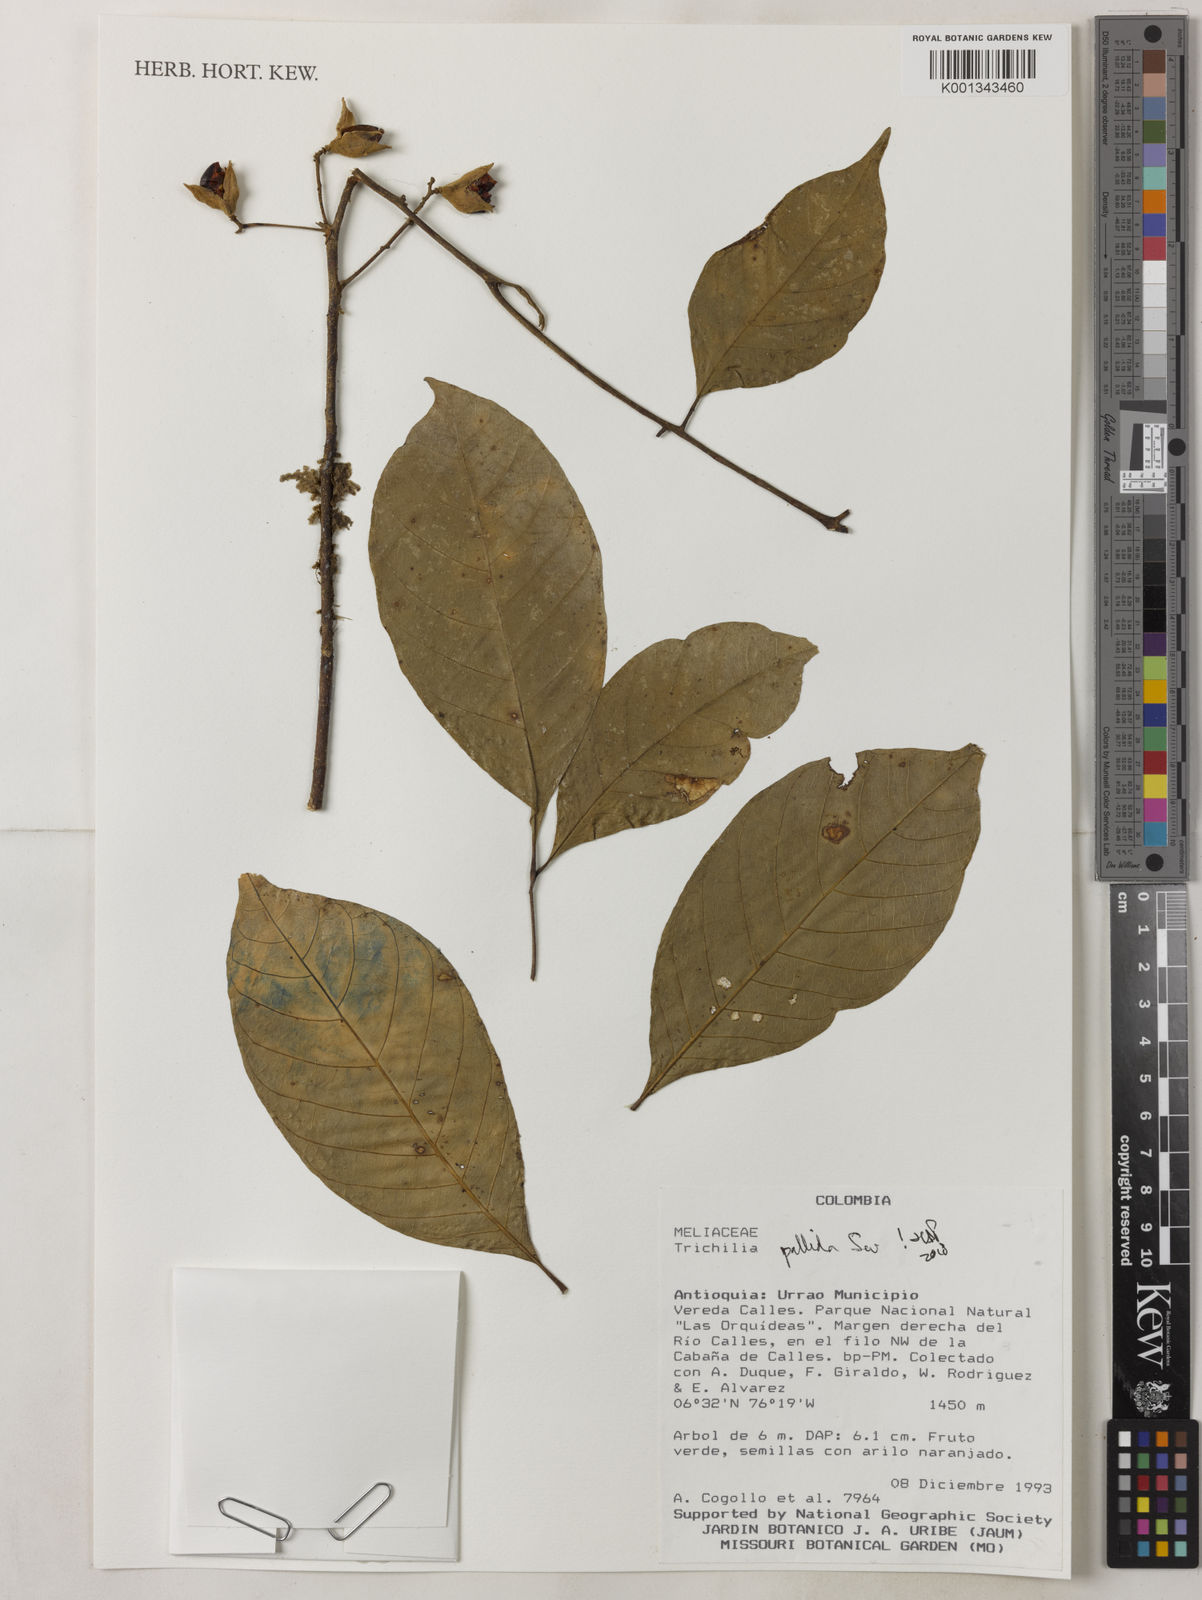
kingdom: Plantae
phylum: Tracheophyta
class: Magnoliopsida
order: Sapindales
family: Meliaceae
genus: Trichilia
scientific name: Trichilia pallida
